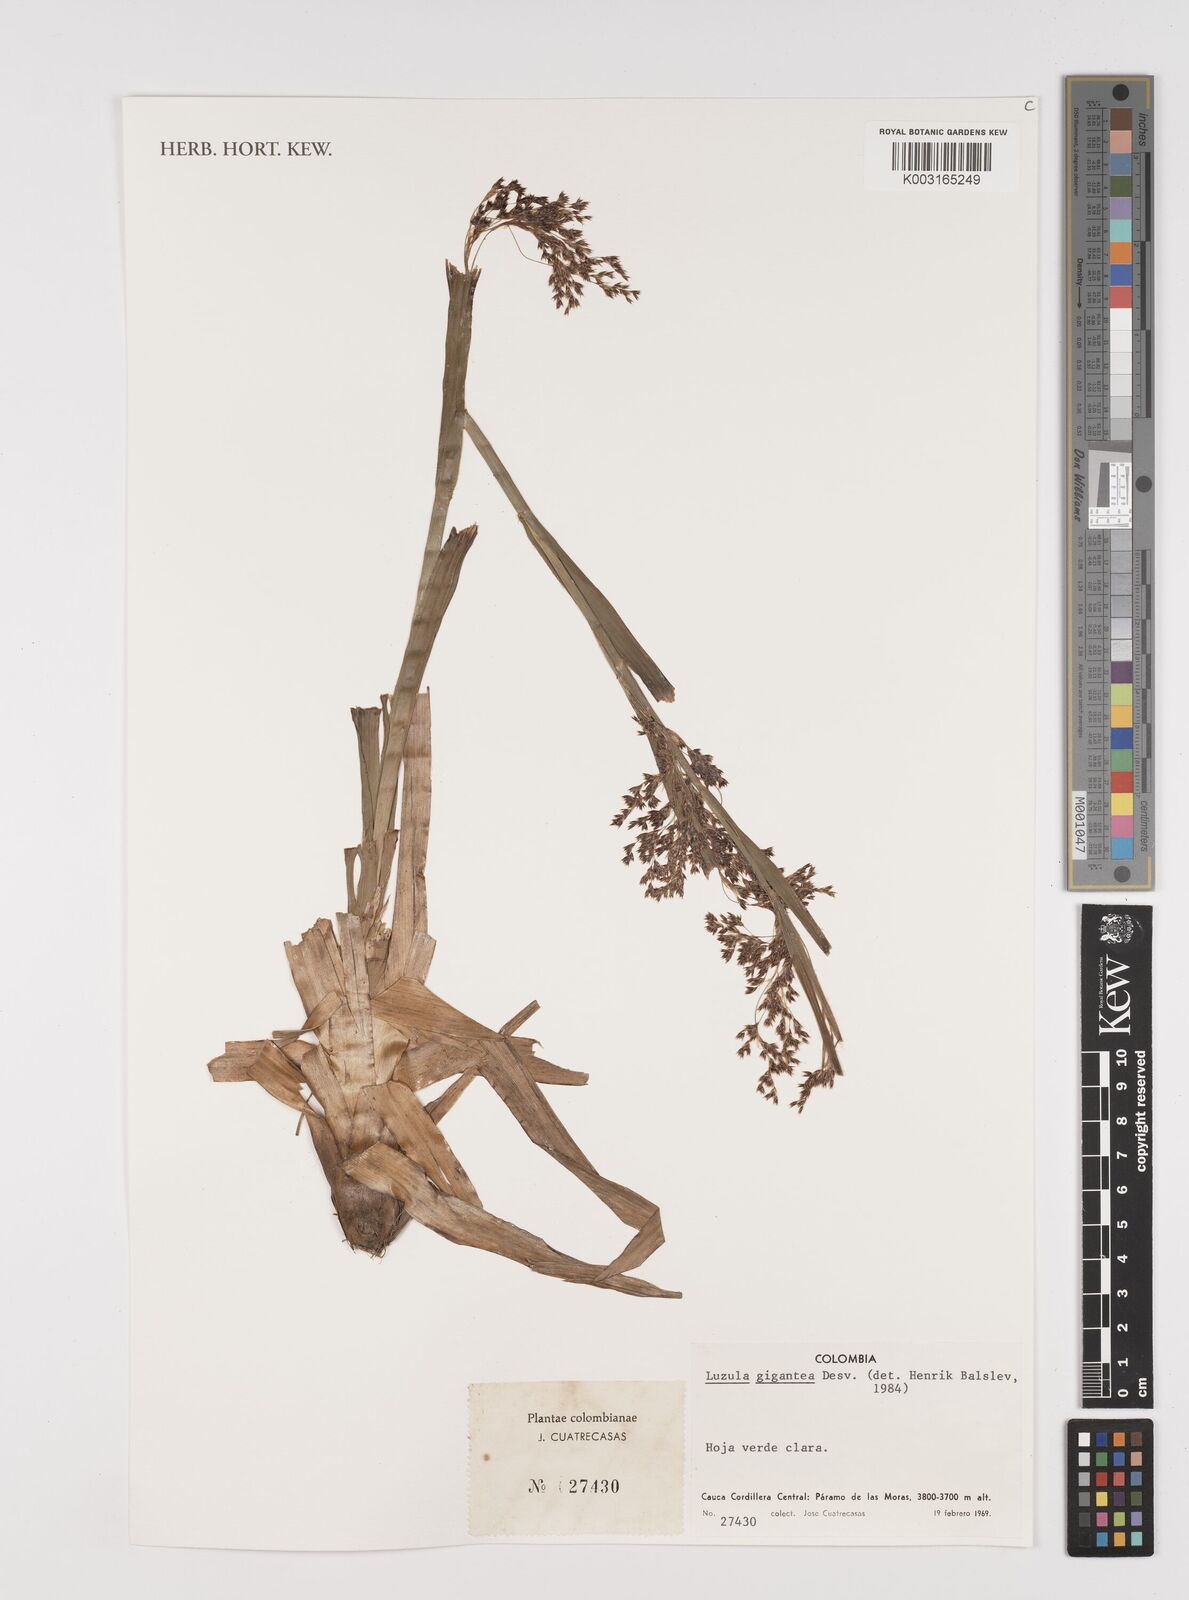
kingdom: Plantae
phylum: Tracheophyta
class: Liliopsida
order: Poales
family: Juncaceae
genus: Luzula
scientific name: Luzula gigantea
